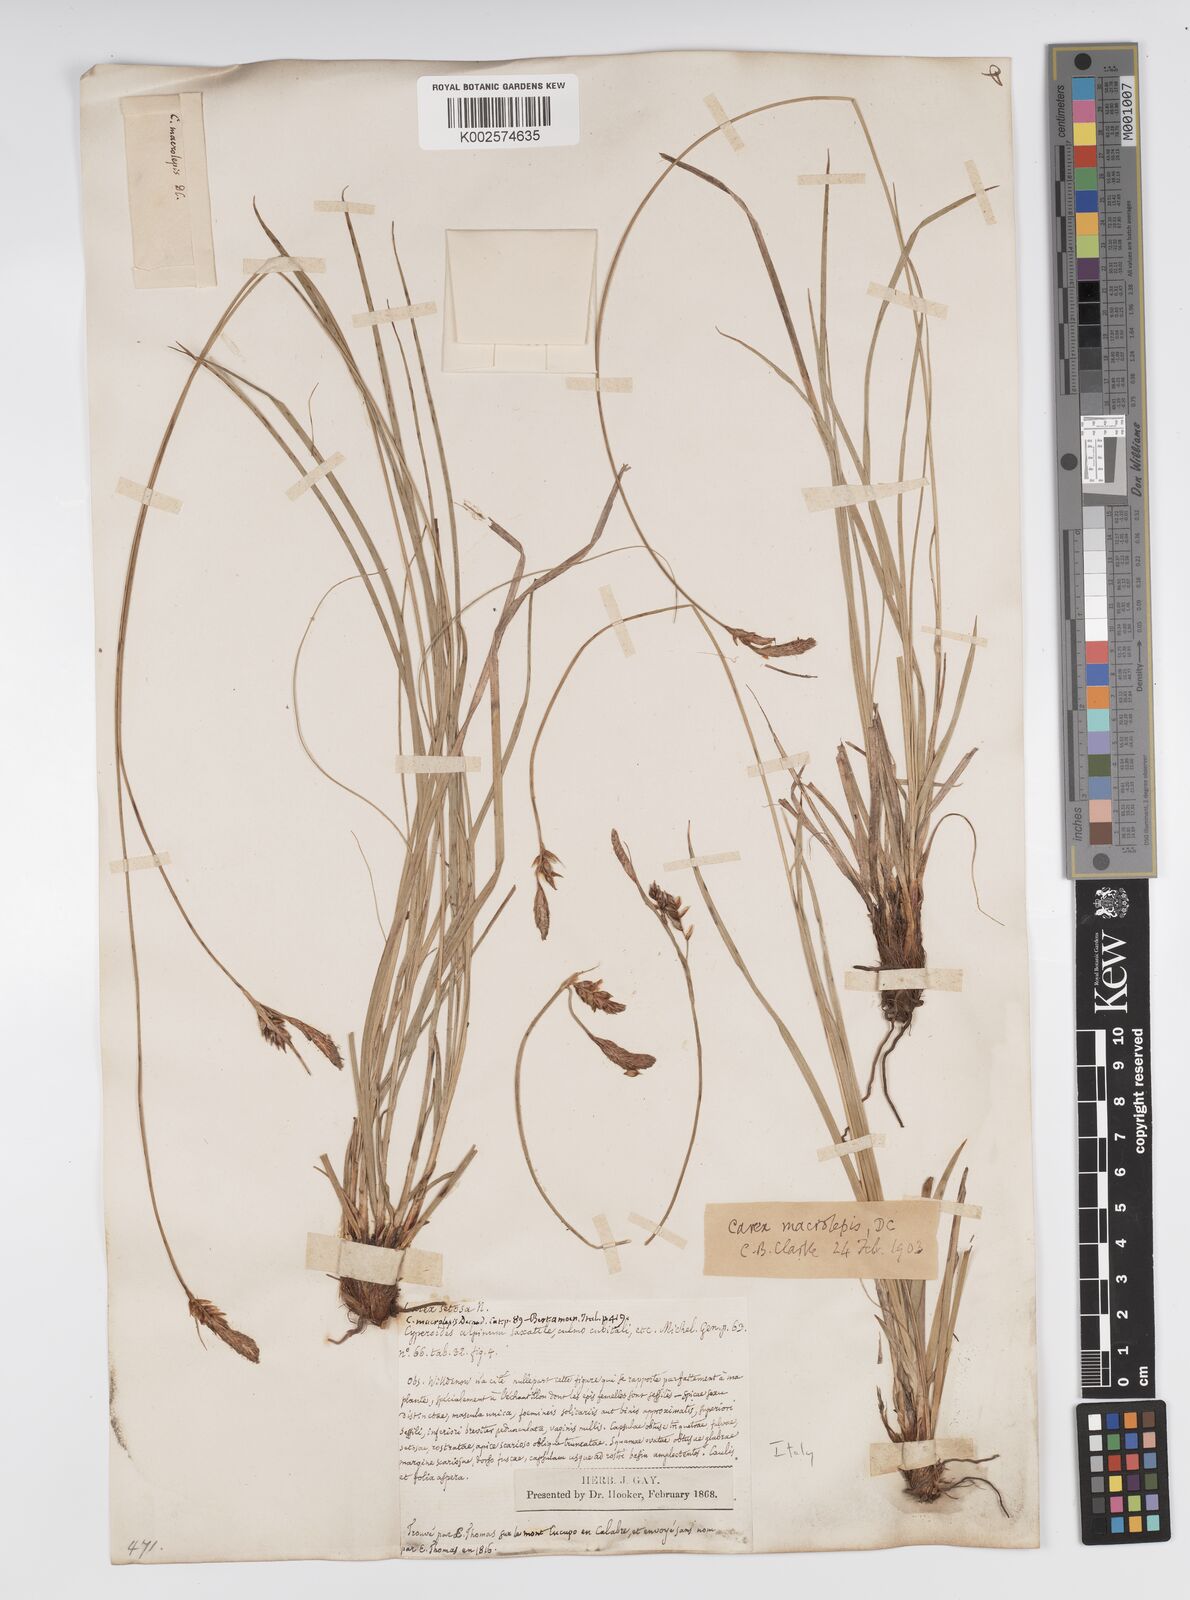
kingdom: Plantae
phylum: Tracheophyta
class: Liliopsida
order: Poales
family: Cyperaceae
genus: Carex
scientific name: Carex macrolepis
